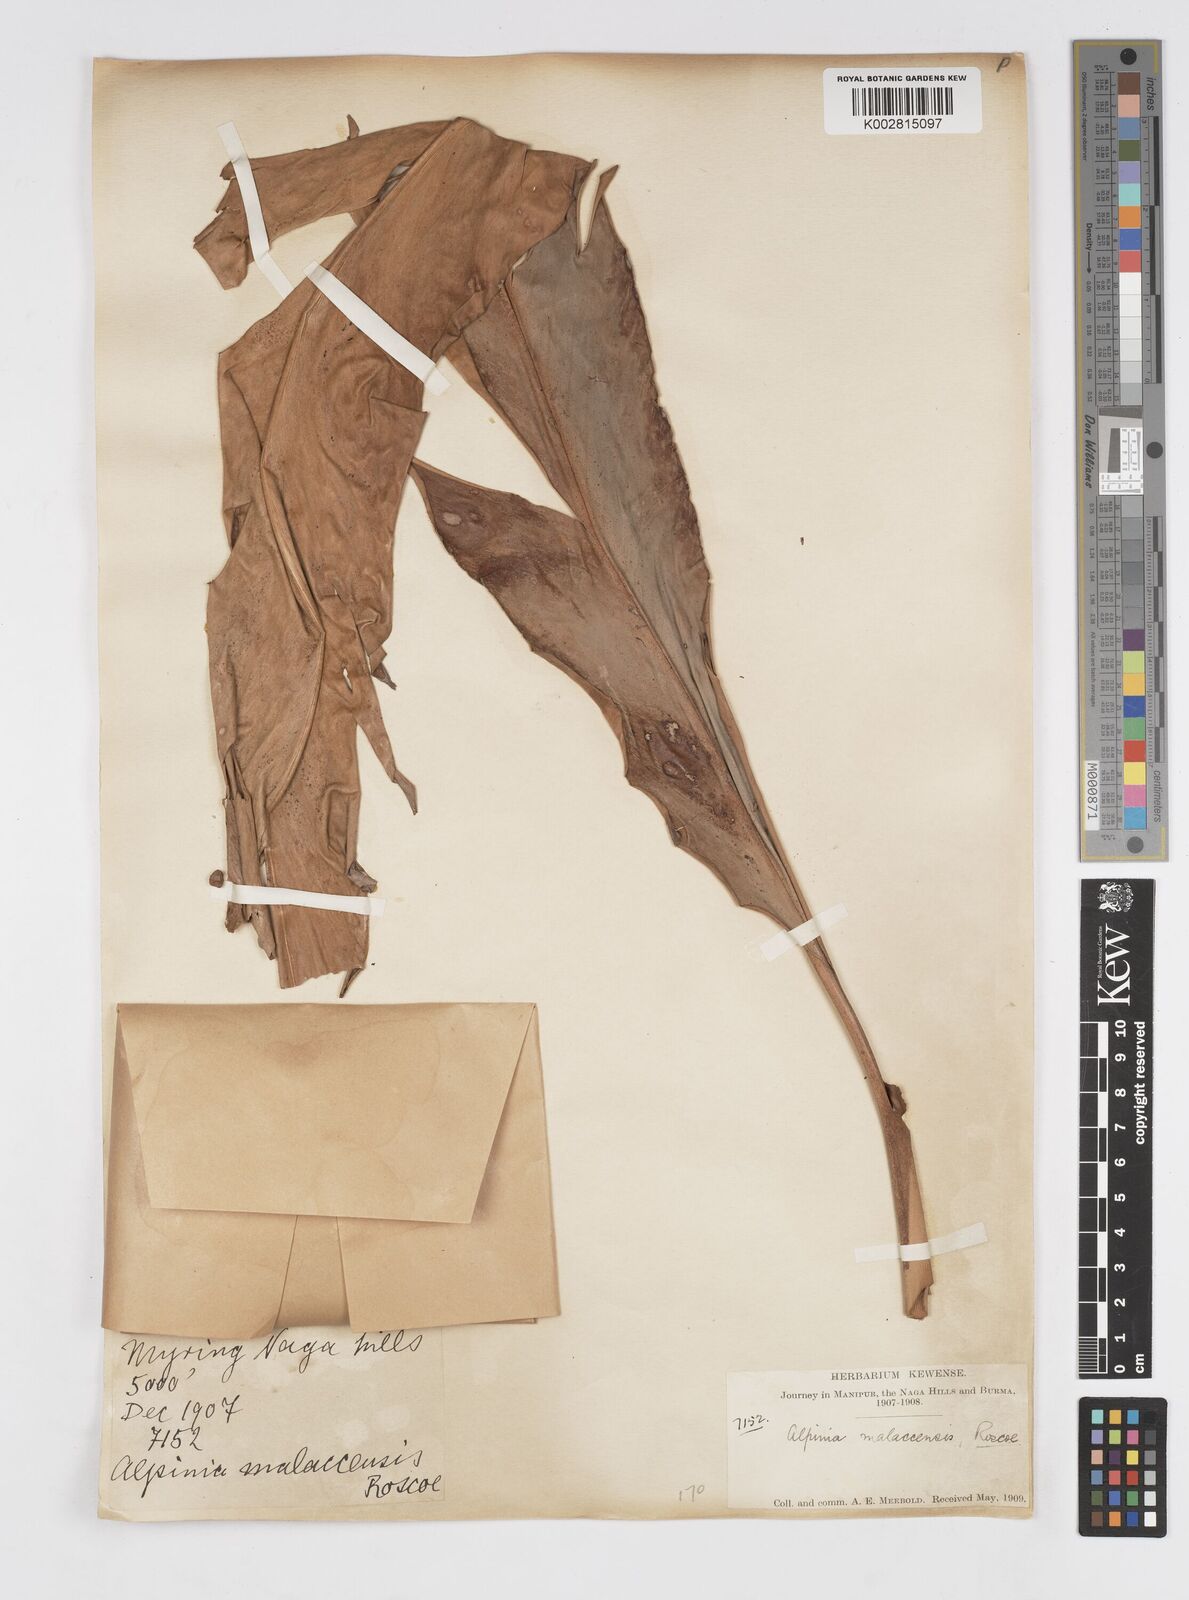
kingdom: Plantae
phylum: Tracheophyta
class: Liliopsida
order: Zingiberales
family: Zingiberaceae
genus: Alpinia
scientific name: Alpinia malaccensis
